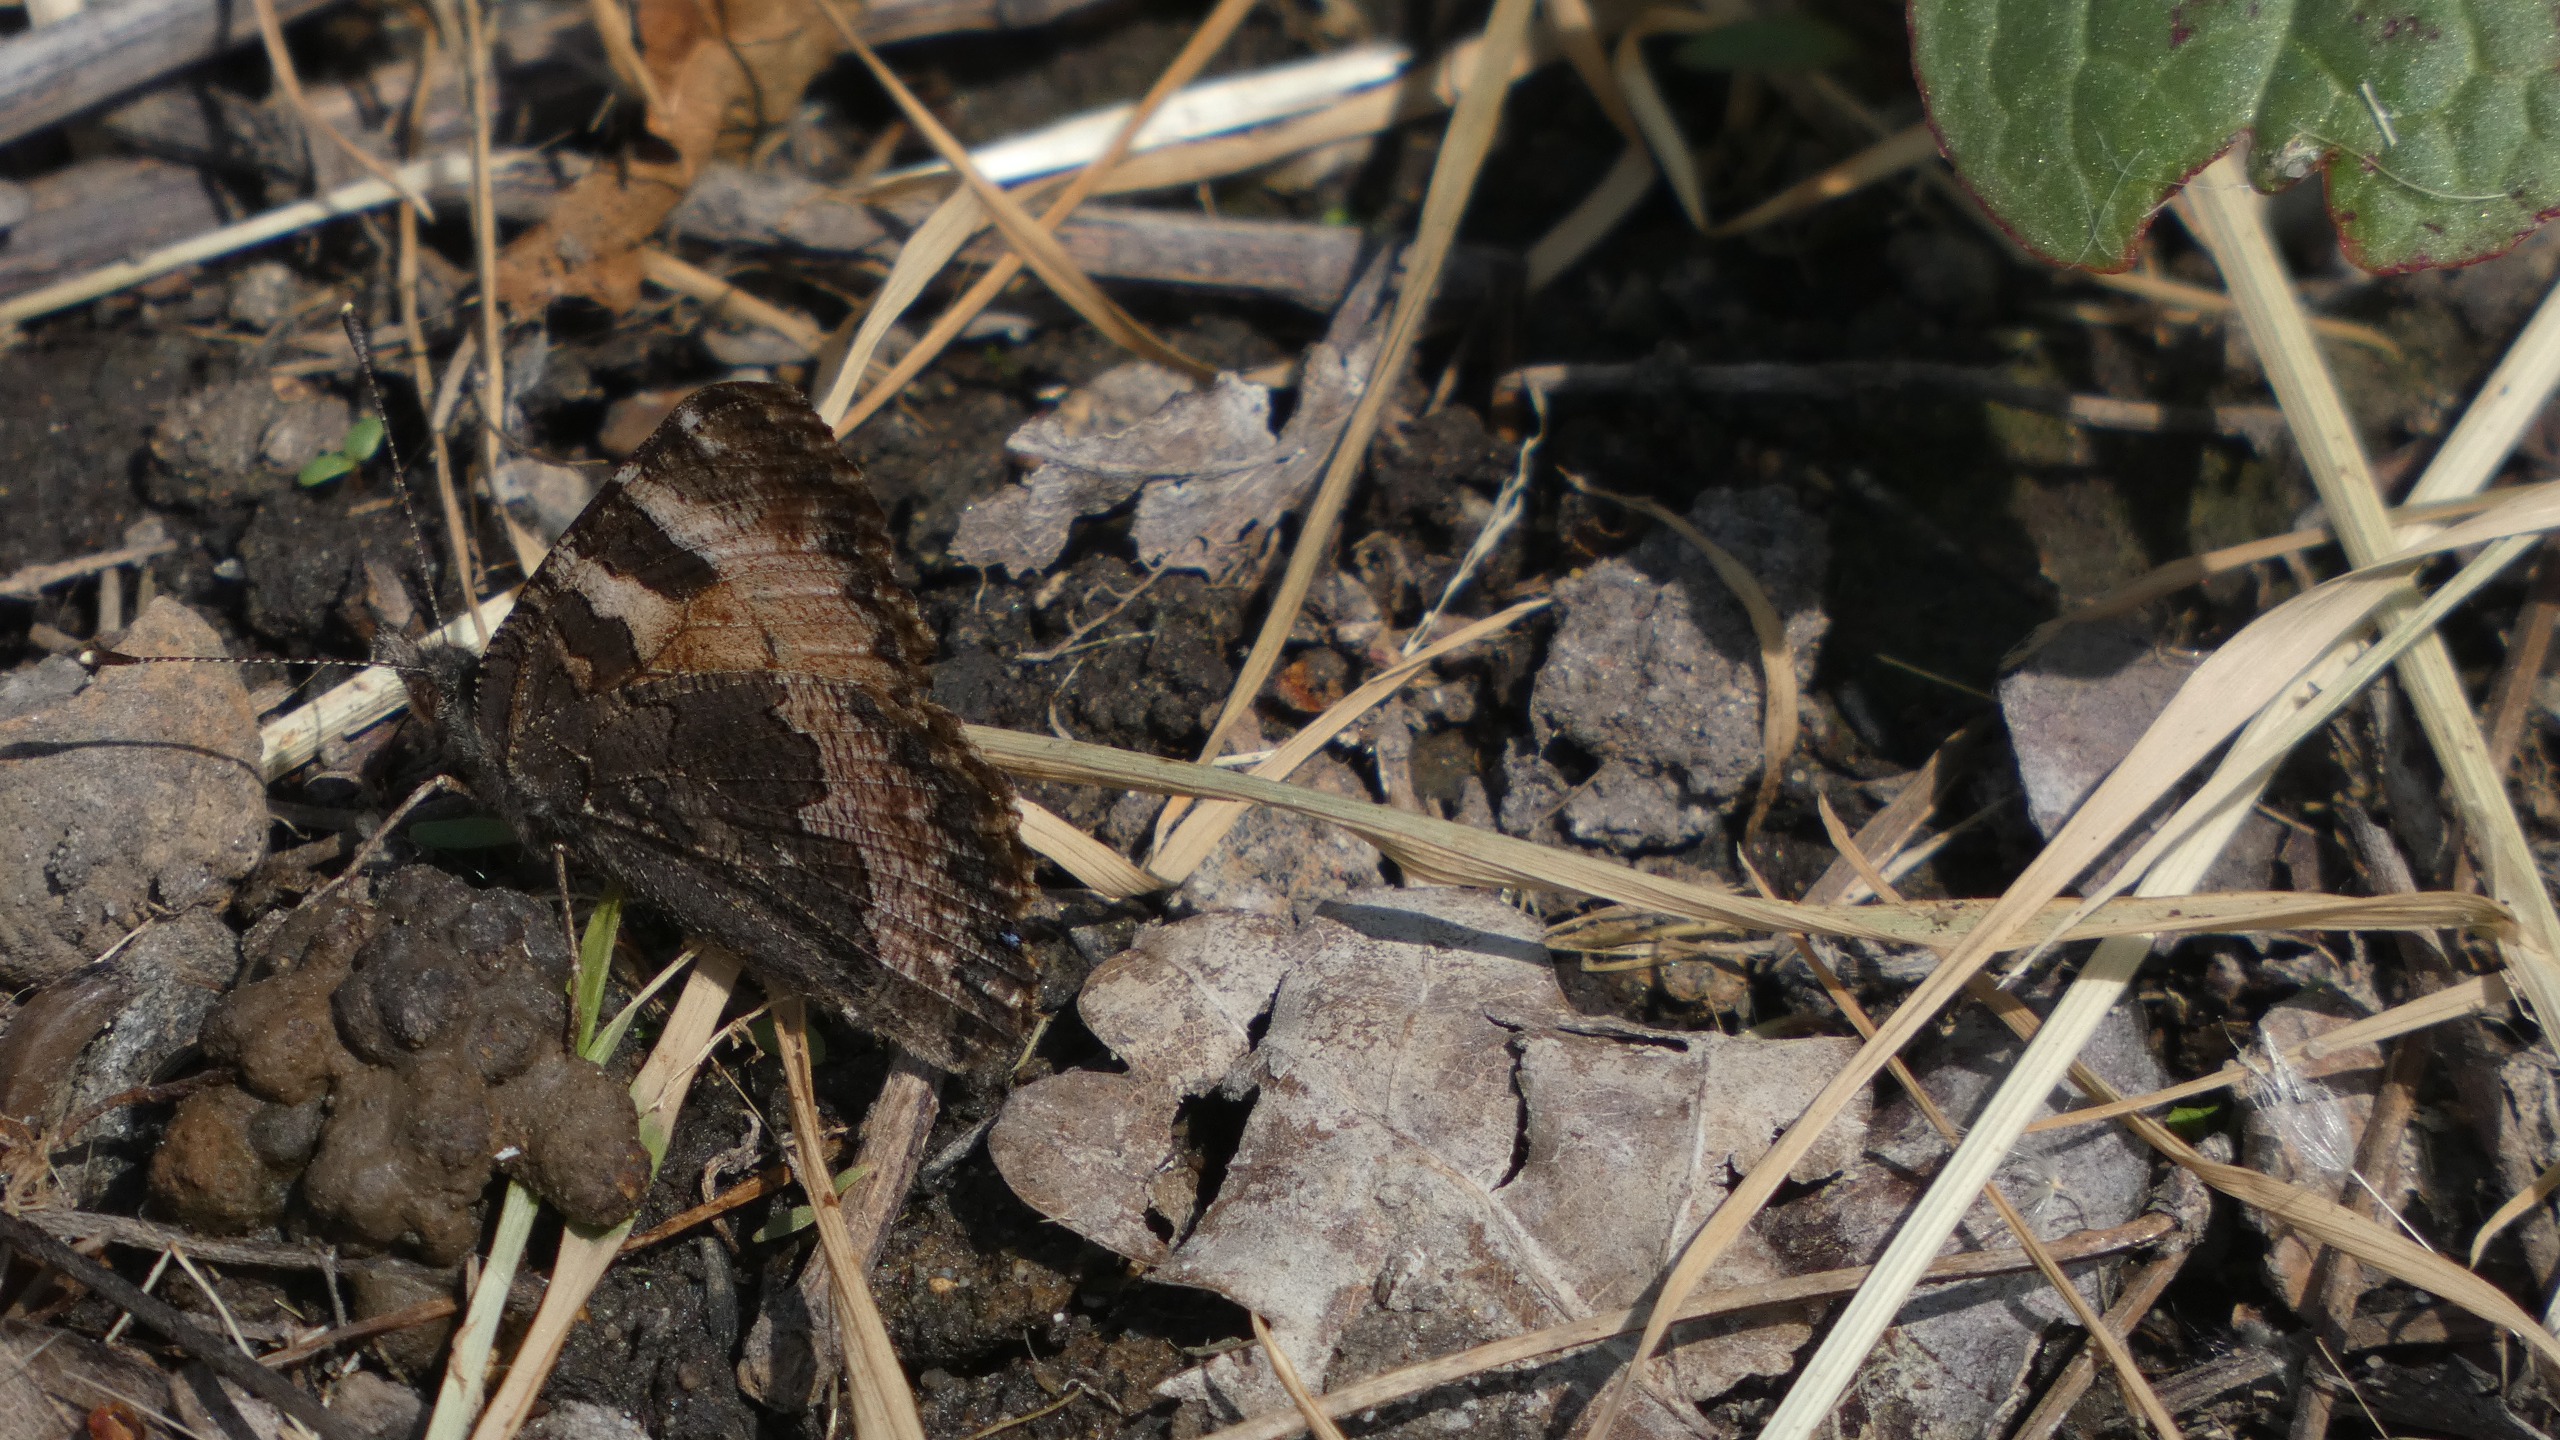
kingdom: Animalia
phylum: Arthropoda
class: Insecta
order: Lepidoptera
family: Nymphalidae
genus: Aglais
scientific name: Aglais urticae
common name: Nældens takvinge
